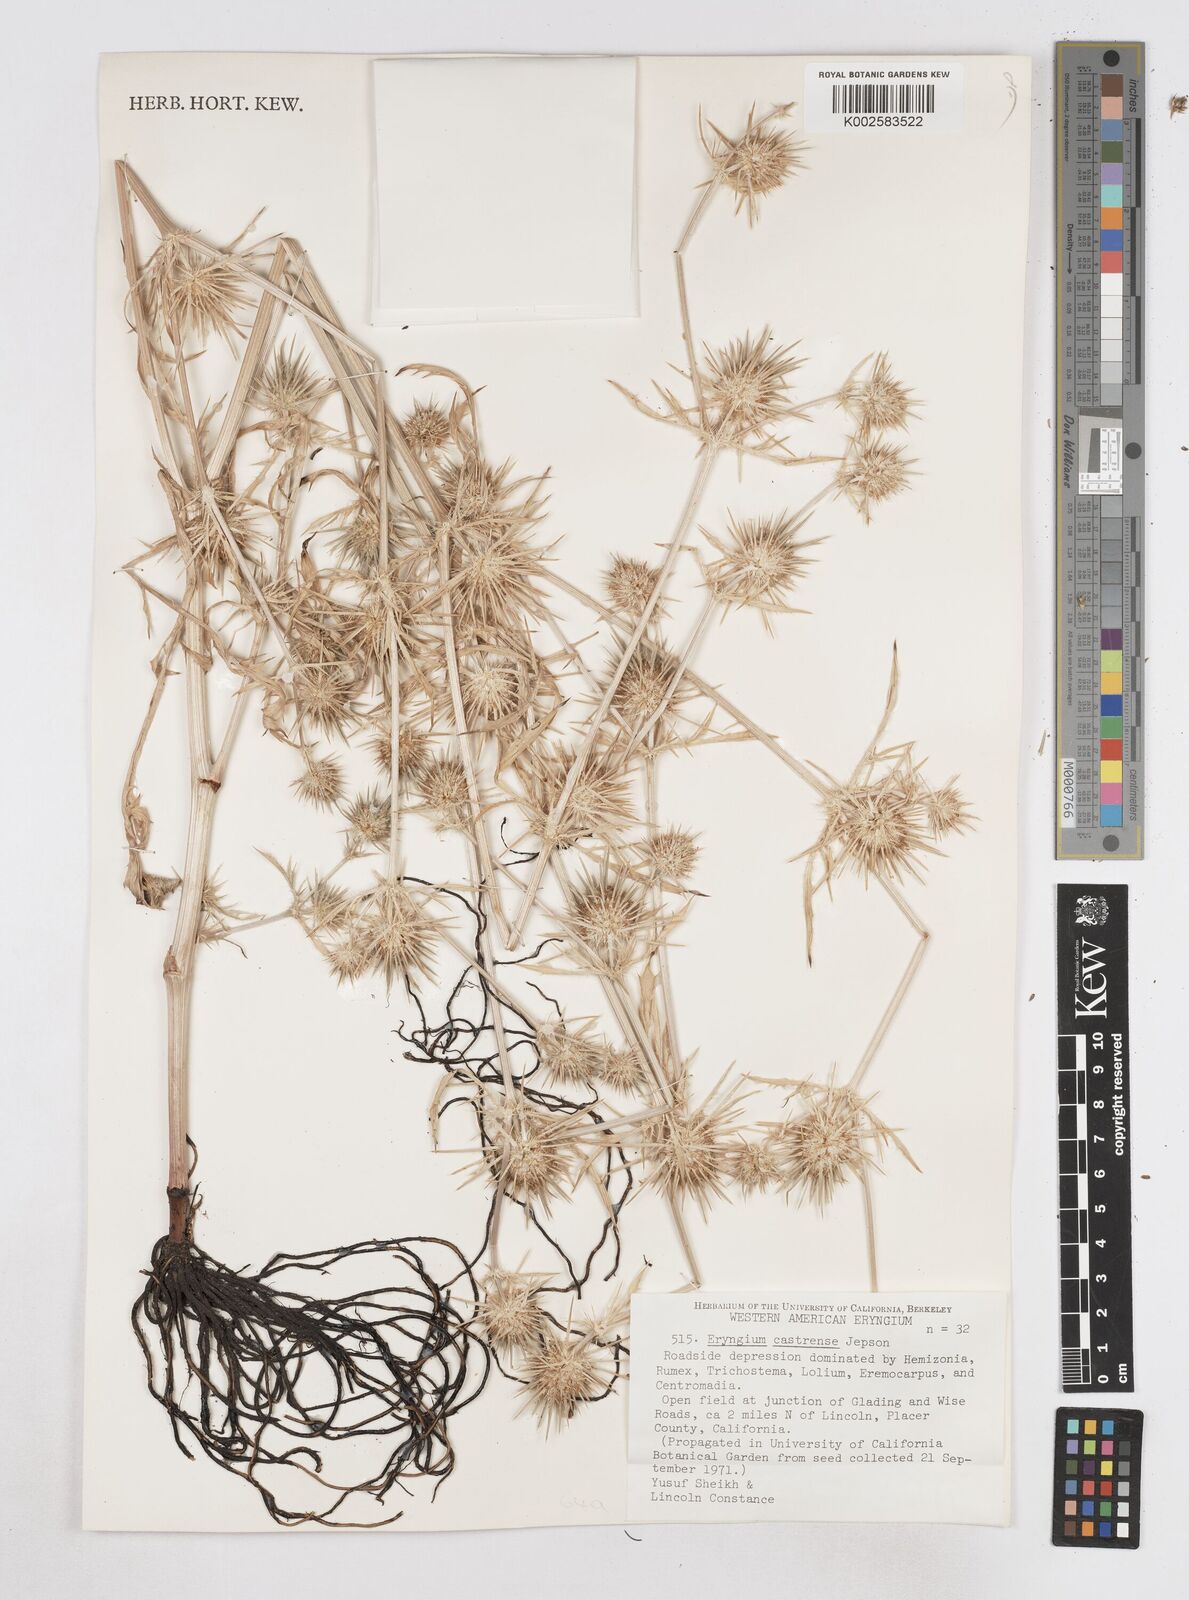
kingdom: Plantae
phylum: Tracheophyta
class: Magnoliopsida
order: Apiales
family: Apiaceae
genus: Eryngium
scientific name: Eryngium castrense
